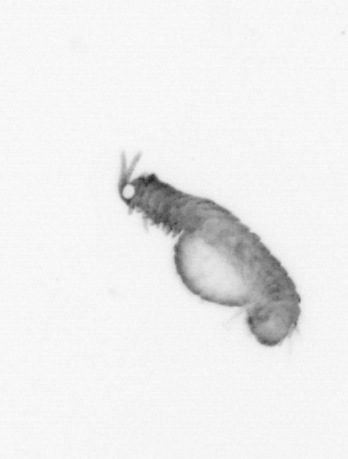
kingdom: Animalia
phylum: Annelida
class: Polychaeta
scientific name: Polychaeta
